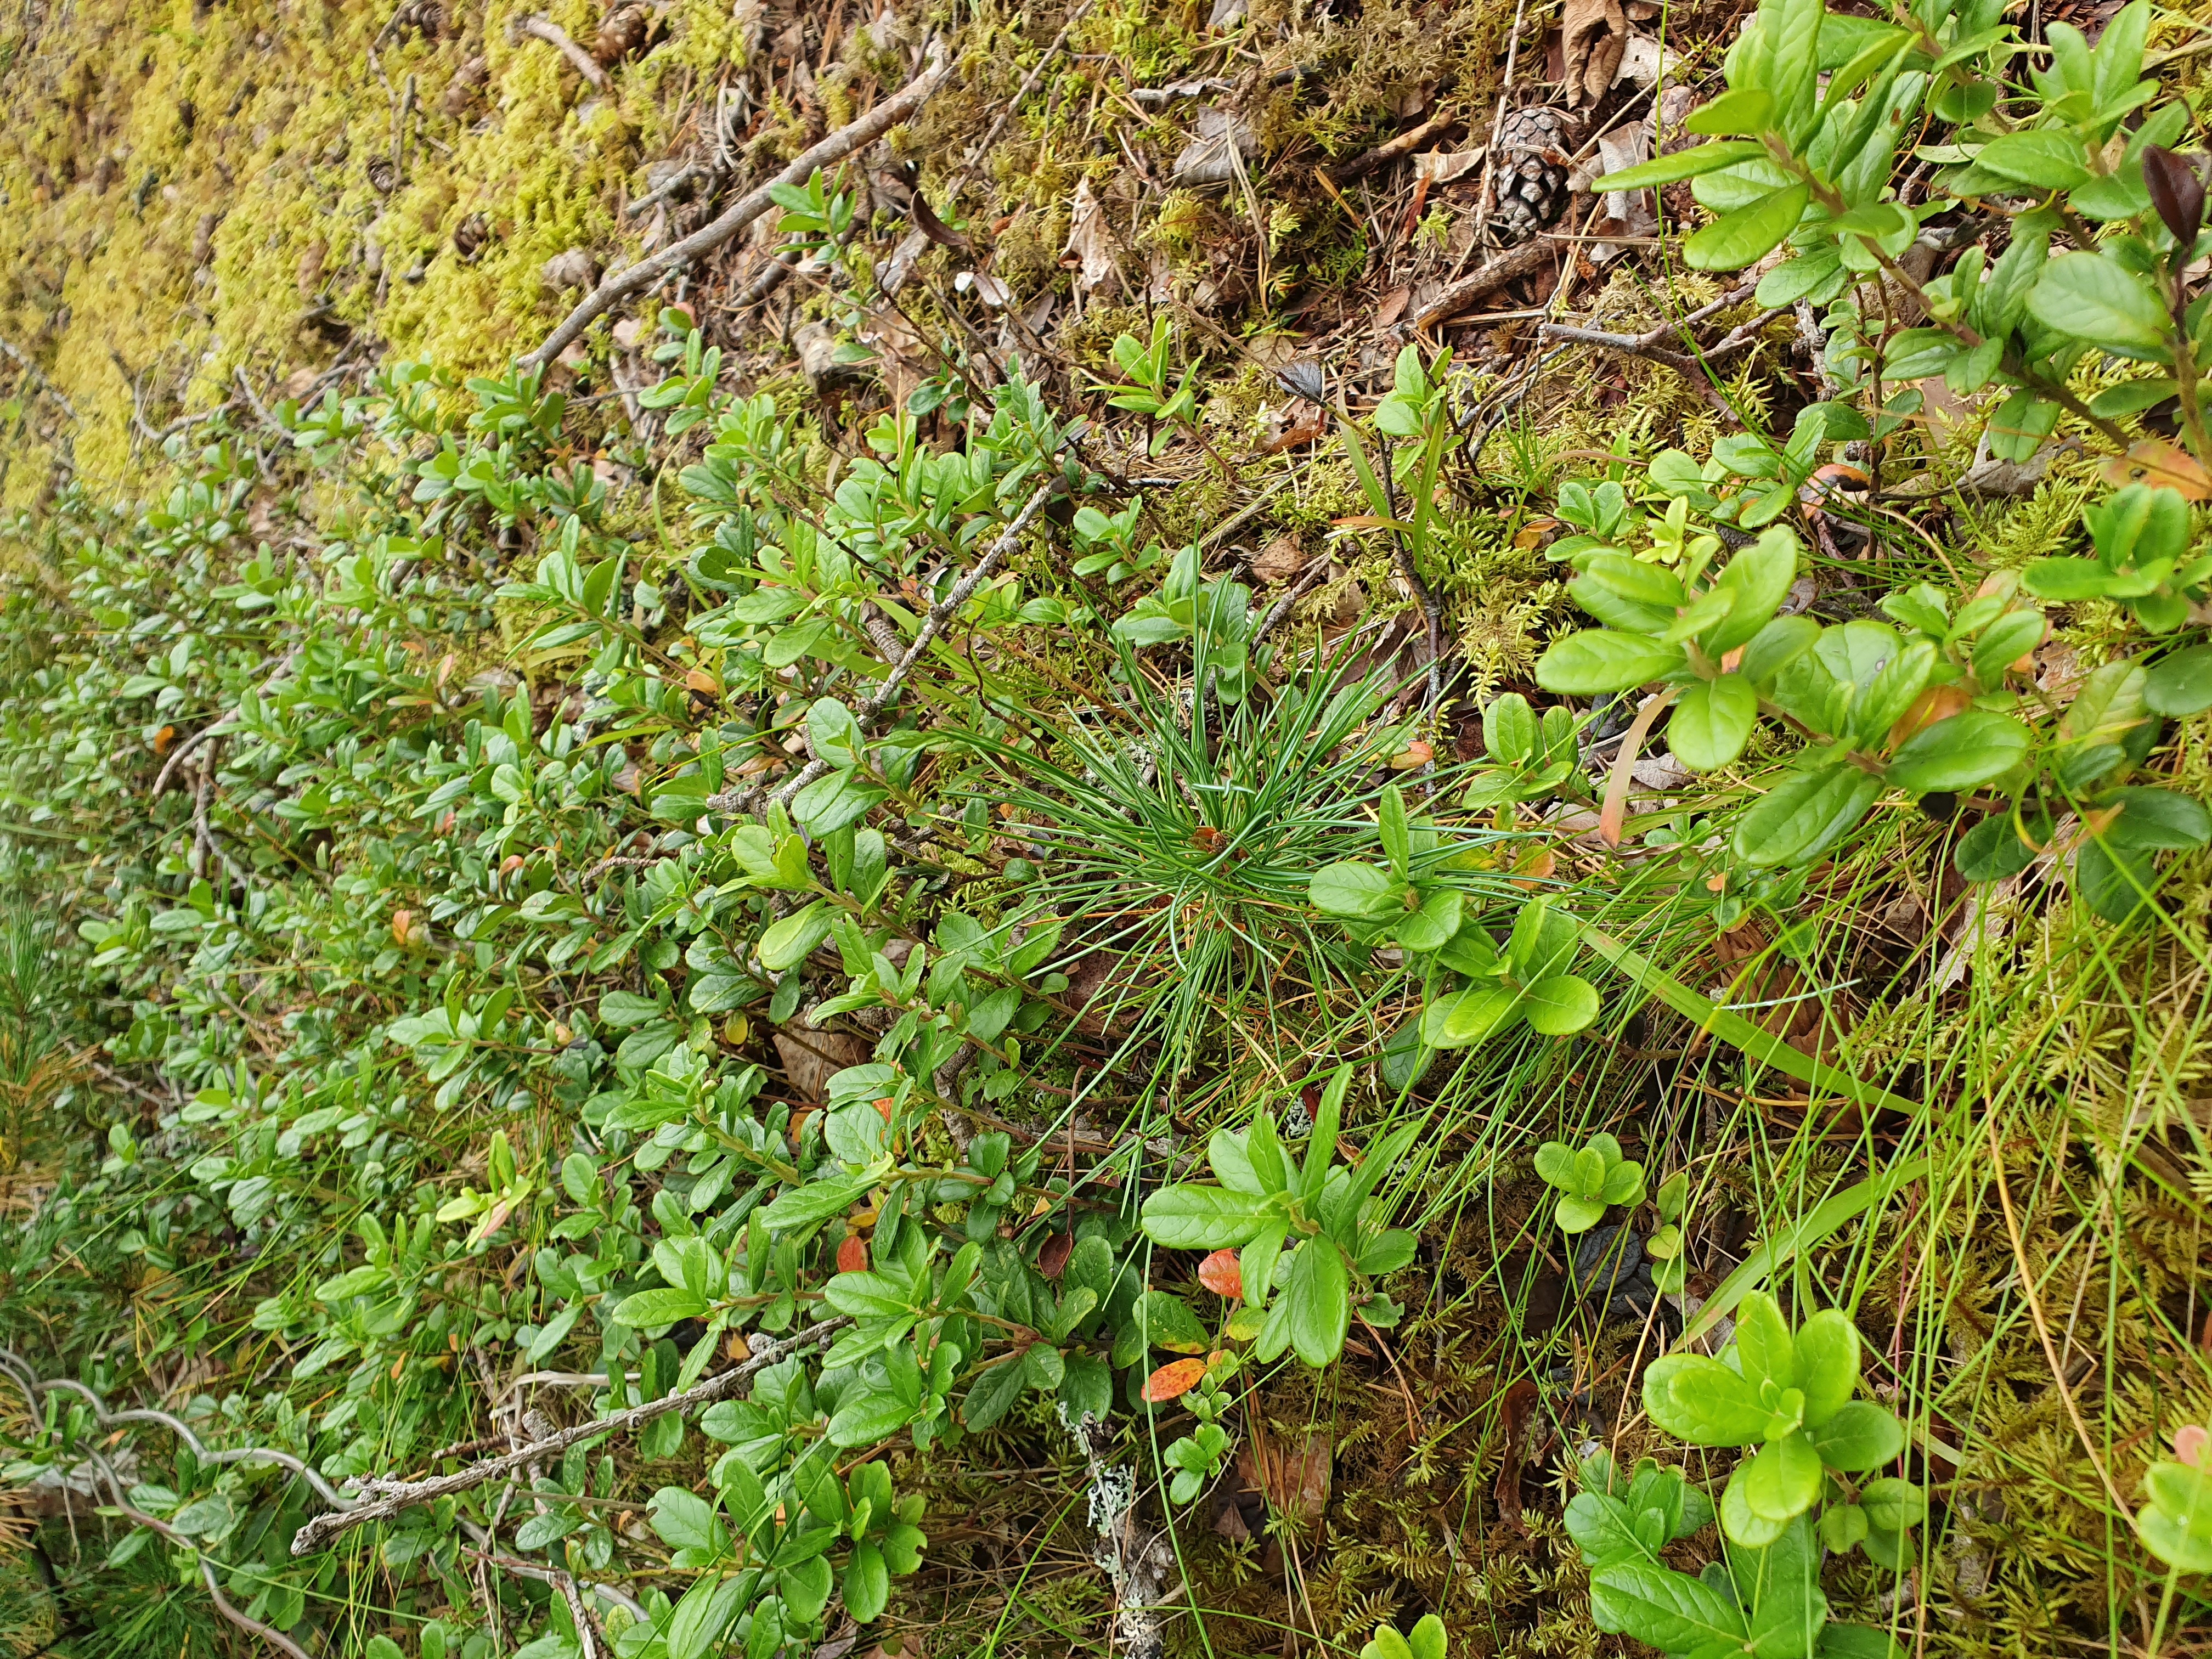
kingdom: Plantae
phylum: Tracheophyta
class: Pinopsida
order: Pinales
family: Pinaceae
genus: Pinus
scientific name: Pinus cembra
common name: Arolla pine
